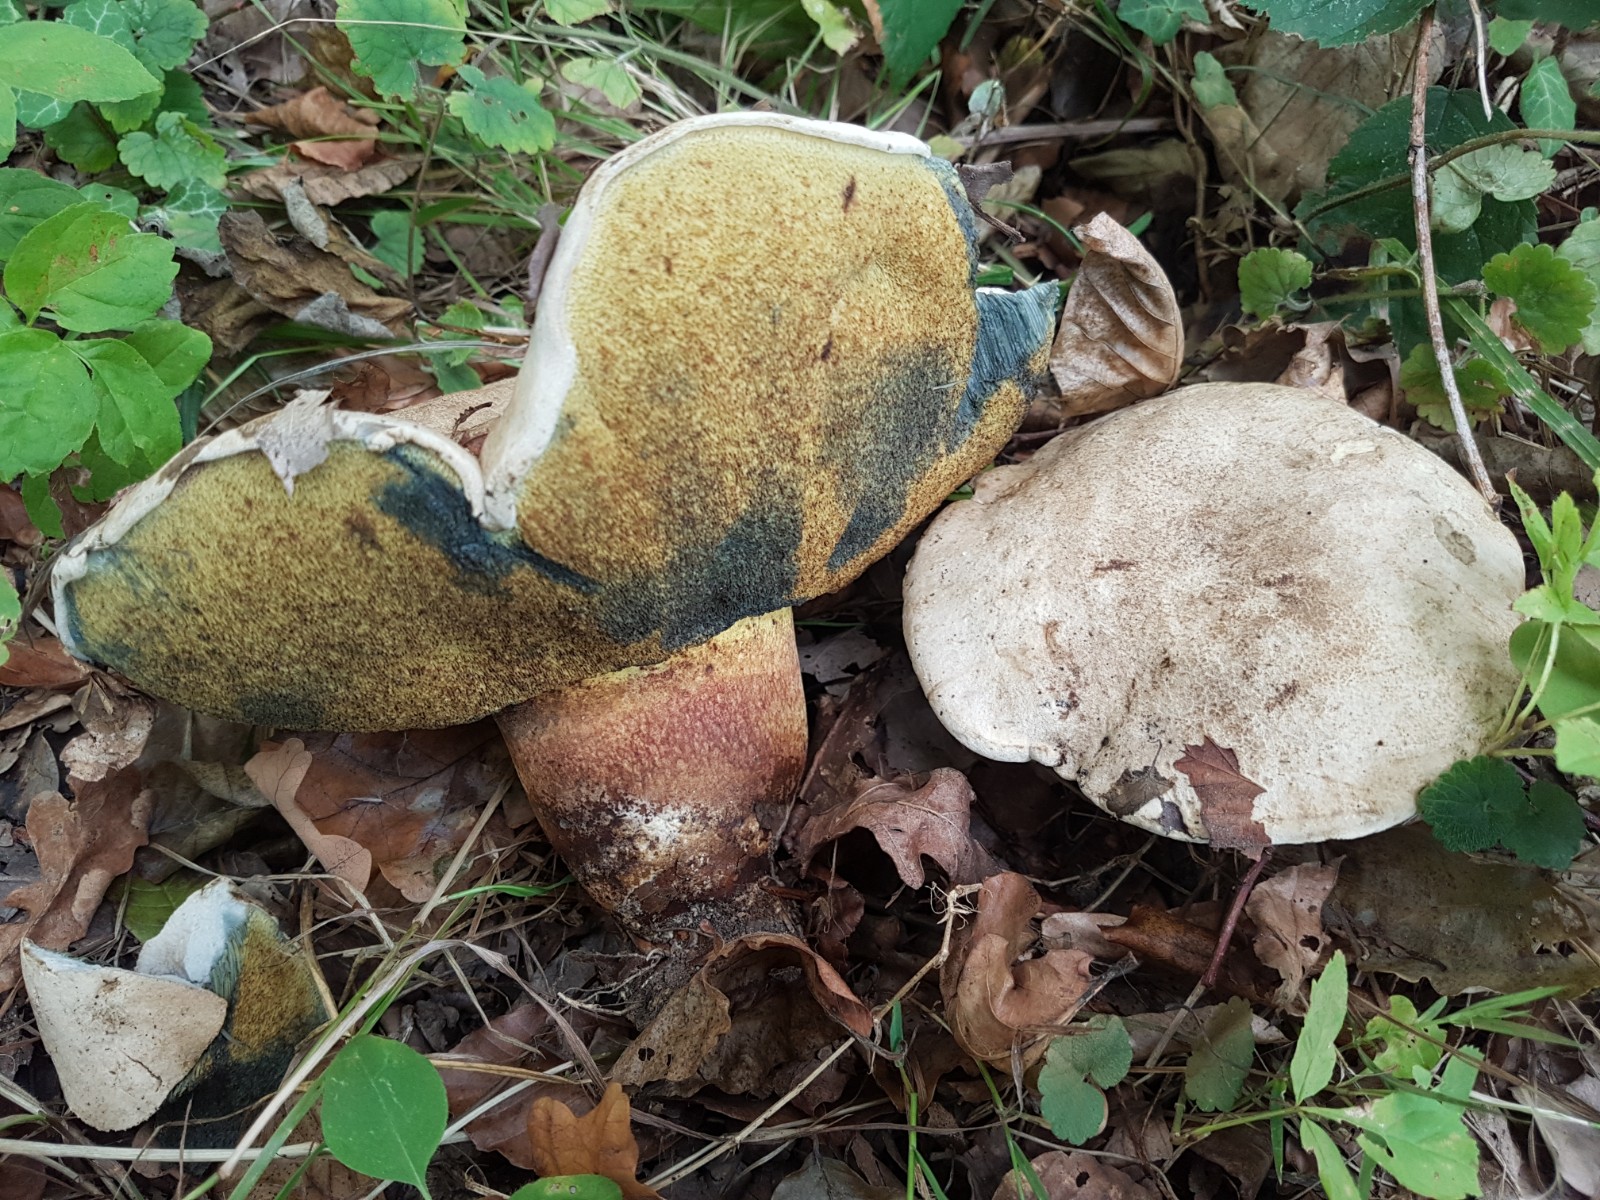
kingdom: Fungi
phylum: Basidiomycota
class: Agaricomycetes
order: Boletales
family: Boletaceae
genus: Caloboletus
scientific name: Caloboletus radicans
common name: rod-rørhat
